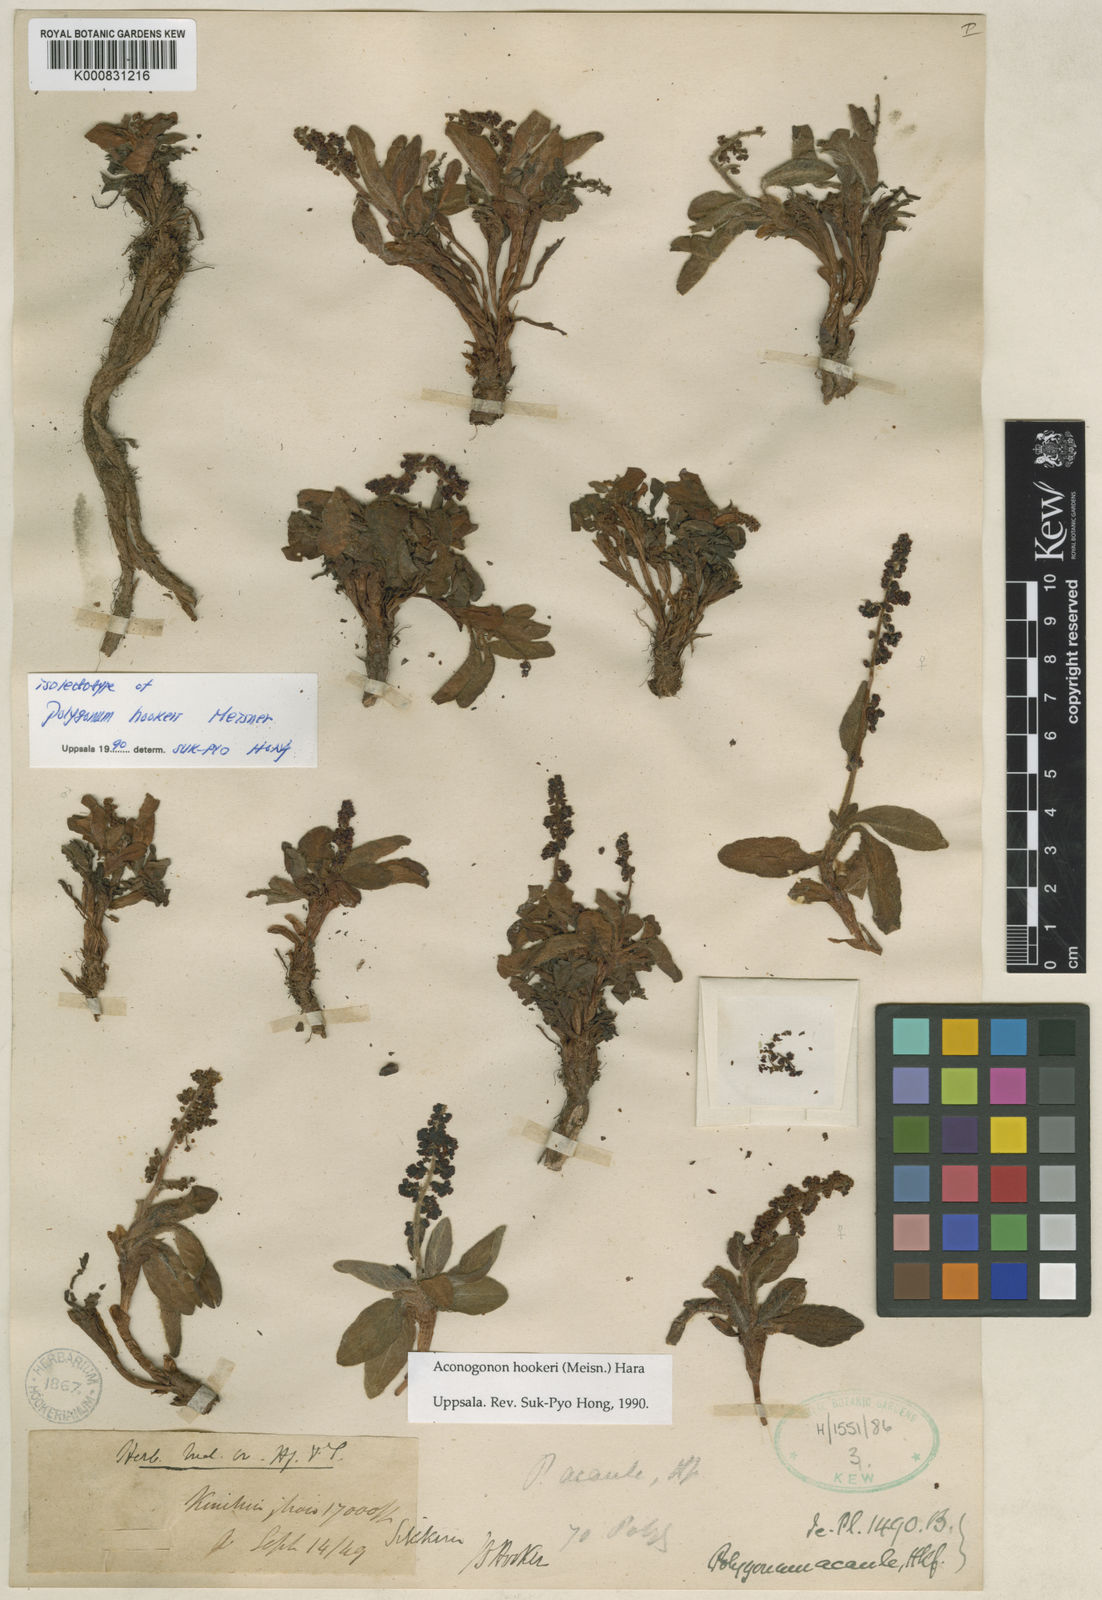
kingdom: Plantae
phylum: Tracheophyta
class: Magnoliopsida
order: Caryophyllales
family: Polygonaceae
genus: Koenigia
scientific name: Koenigia hookeri
